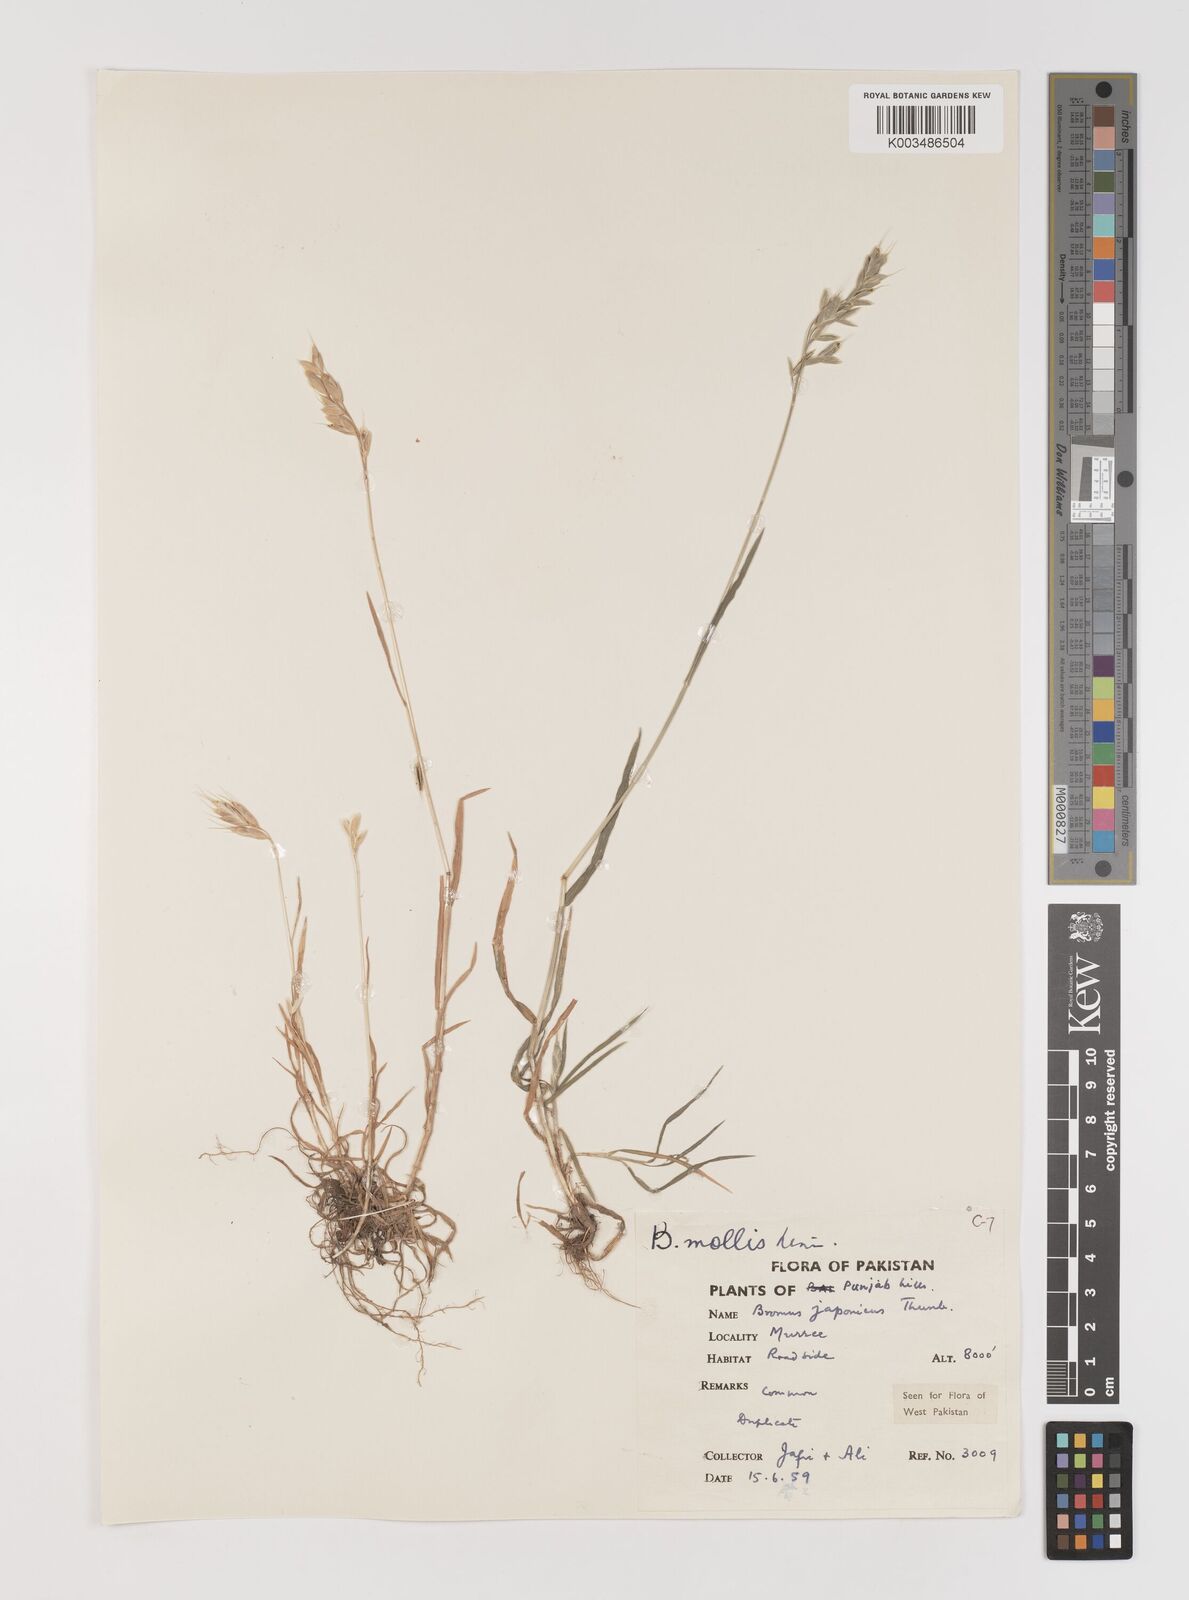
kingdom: Plantae
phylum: Tracheophyta
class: Liliopsida
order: Poales
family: Poaceae
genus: Bromus
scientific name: Bromus hordeaceus
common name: Soft brome
